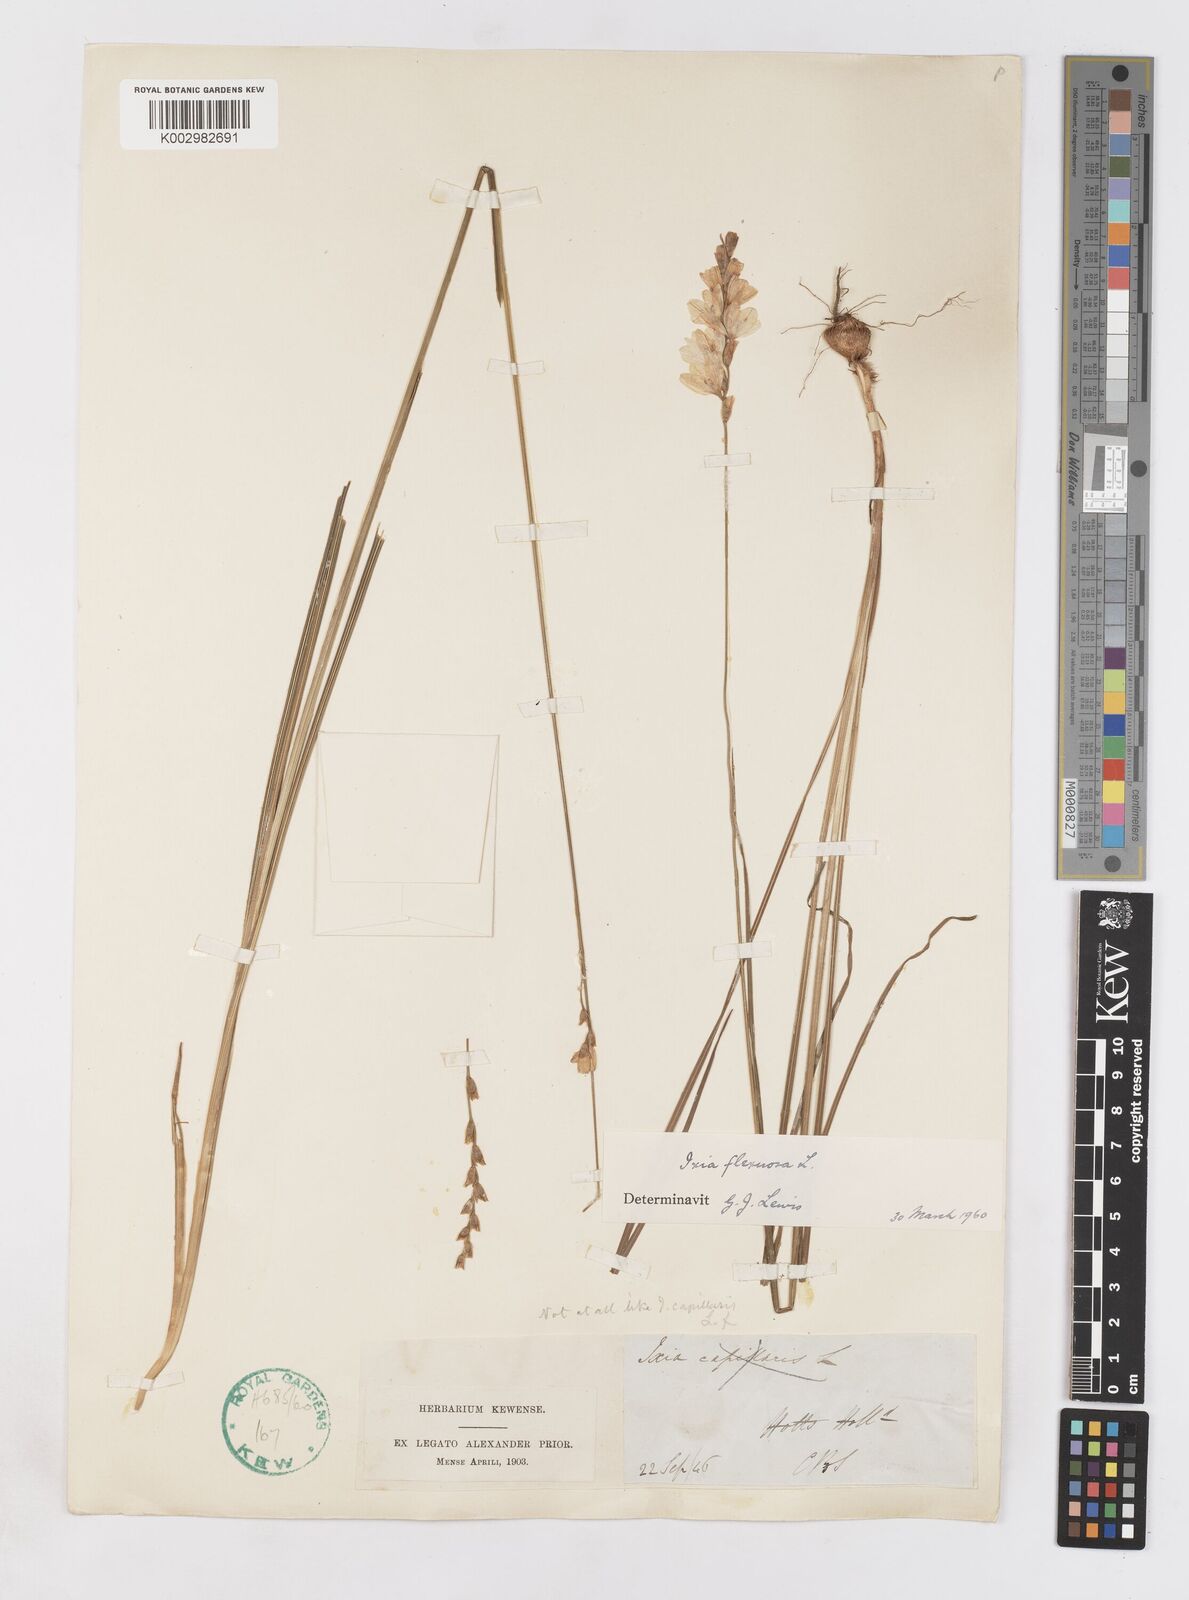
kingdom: Plantae
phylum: Tracheophyta
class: Liliopsida
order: Asparagales
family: Iridaceae
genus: Ixia
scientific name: Ixia flexuosa
